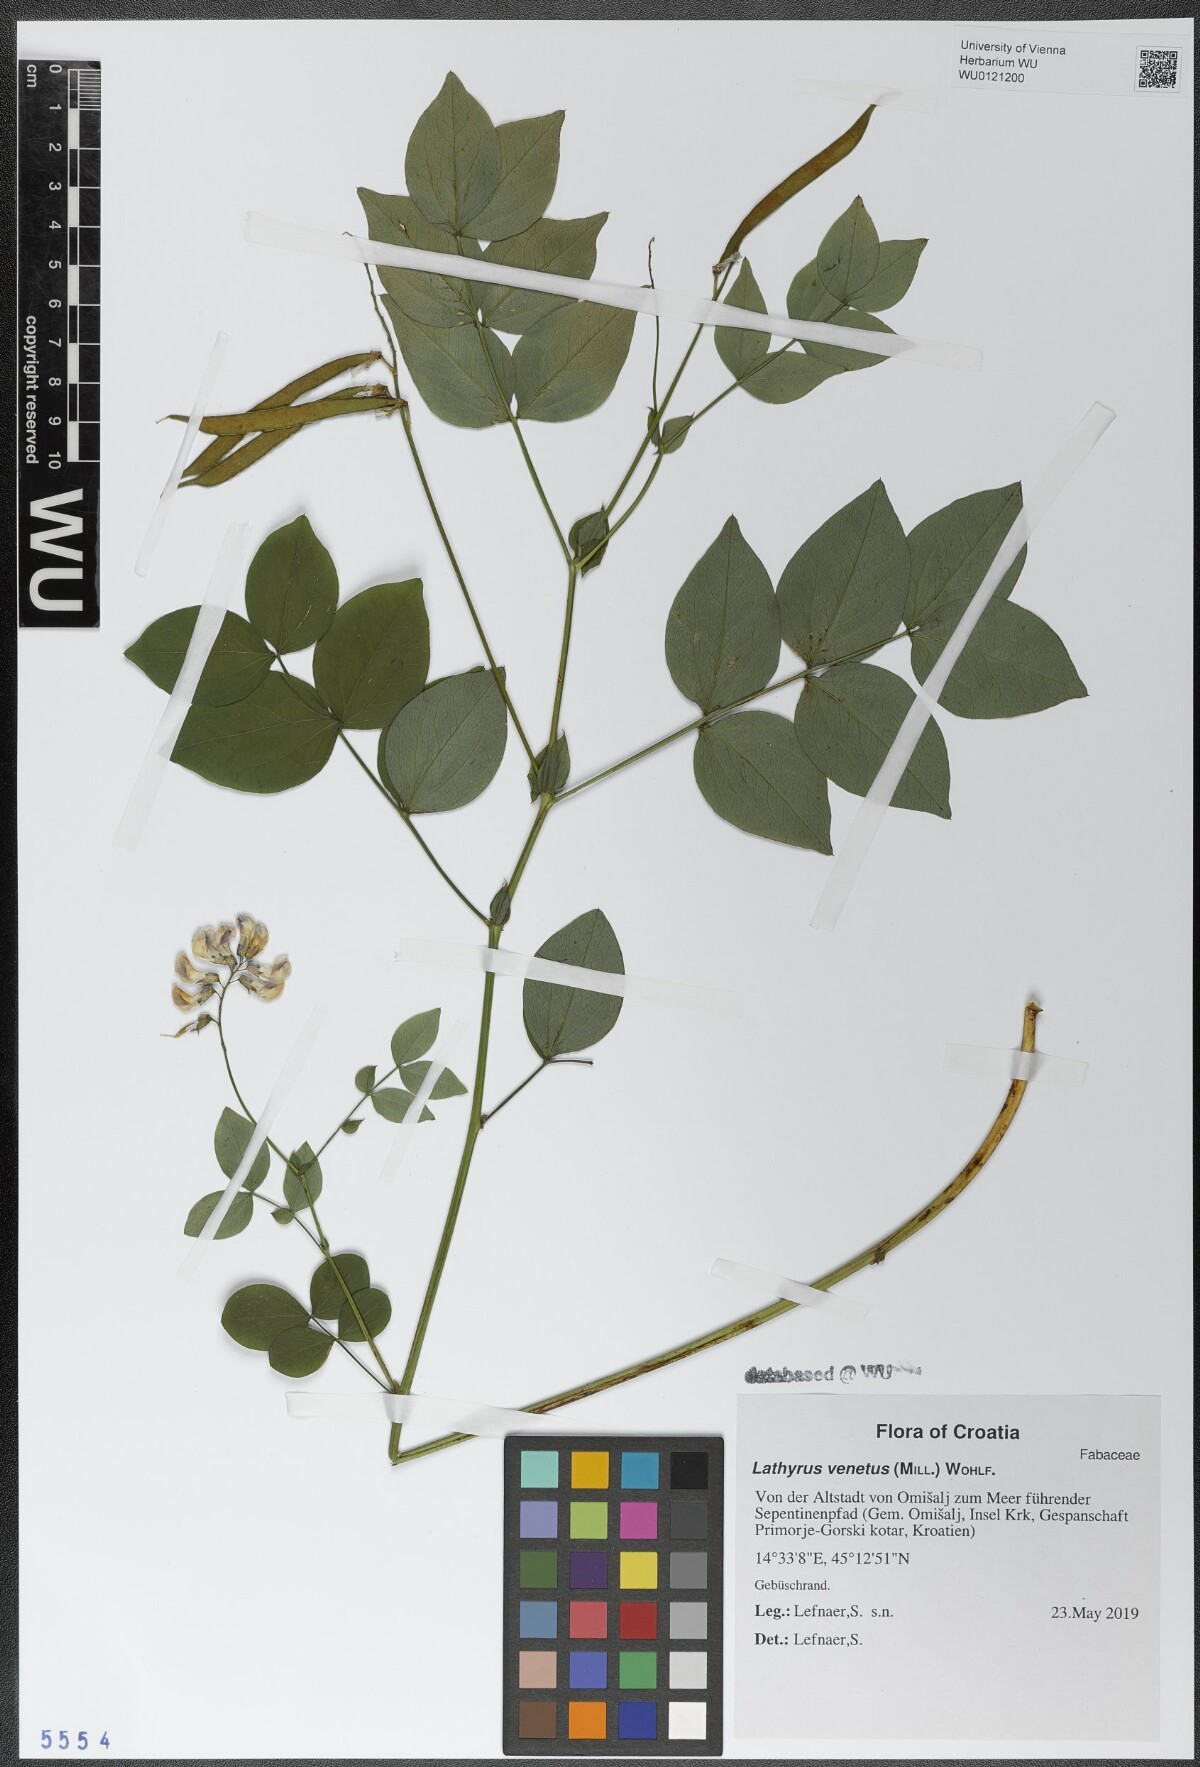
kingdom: Plantae
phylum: Tracheophyta
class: Magnoliopsida
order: Fabales
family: Fabaceae
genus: Lathyrus
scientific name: Lathyrus venetus
